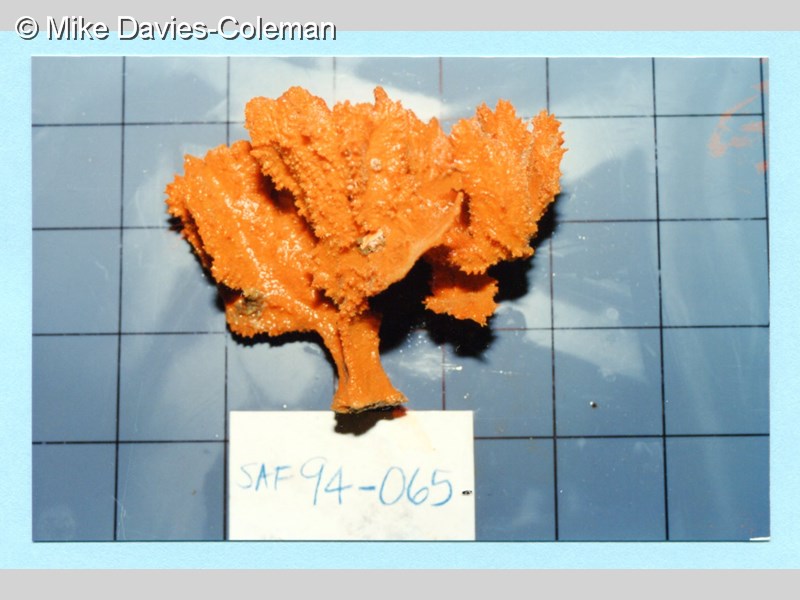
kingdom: Animalia
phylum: Porifera
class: Demospongiae
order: Poecilosclerida
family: Isodictyidae
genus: Isodictya
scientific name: Isodictya grandis
